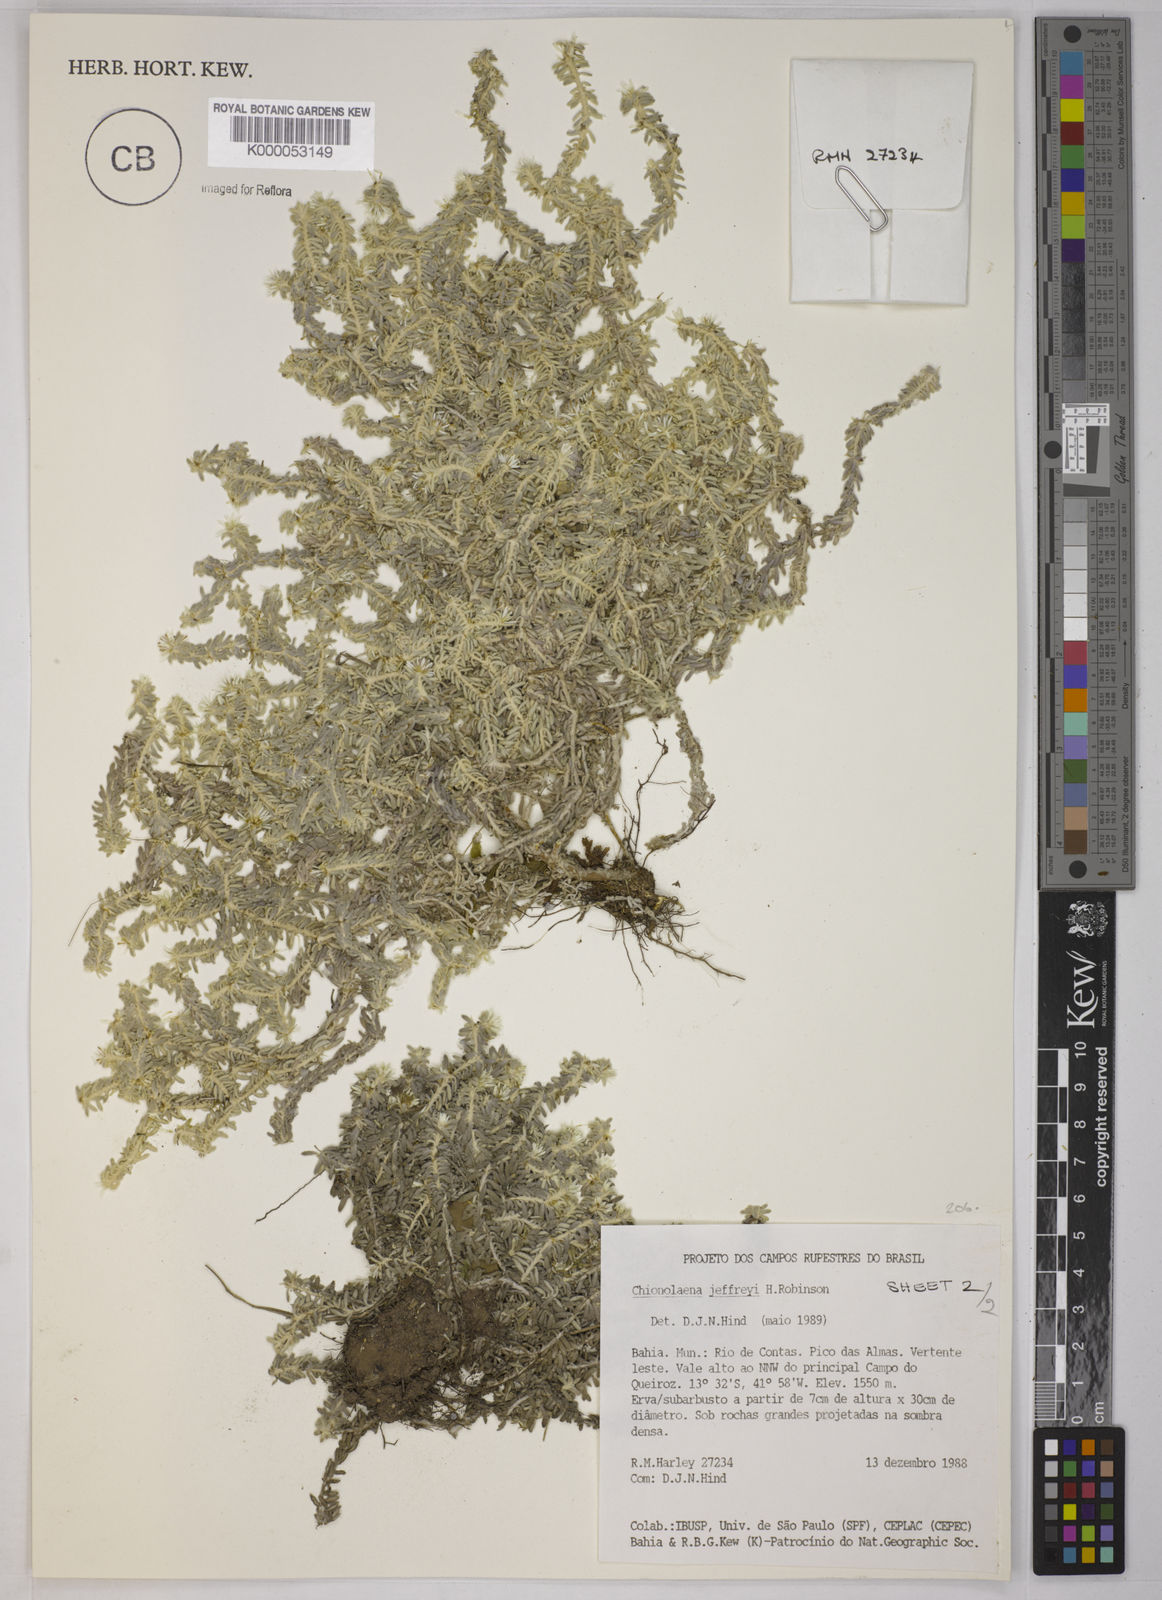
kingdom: Plantae
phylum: Tracheophyta
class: Magnoliopsida
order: Asterales
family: Asteraceae
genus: Chionolaena
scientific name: Chionolaena jeffreyi
